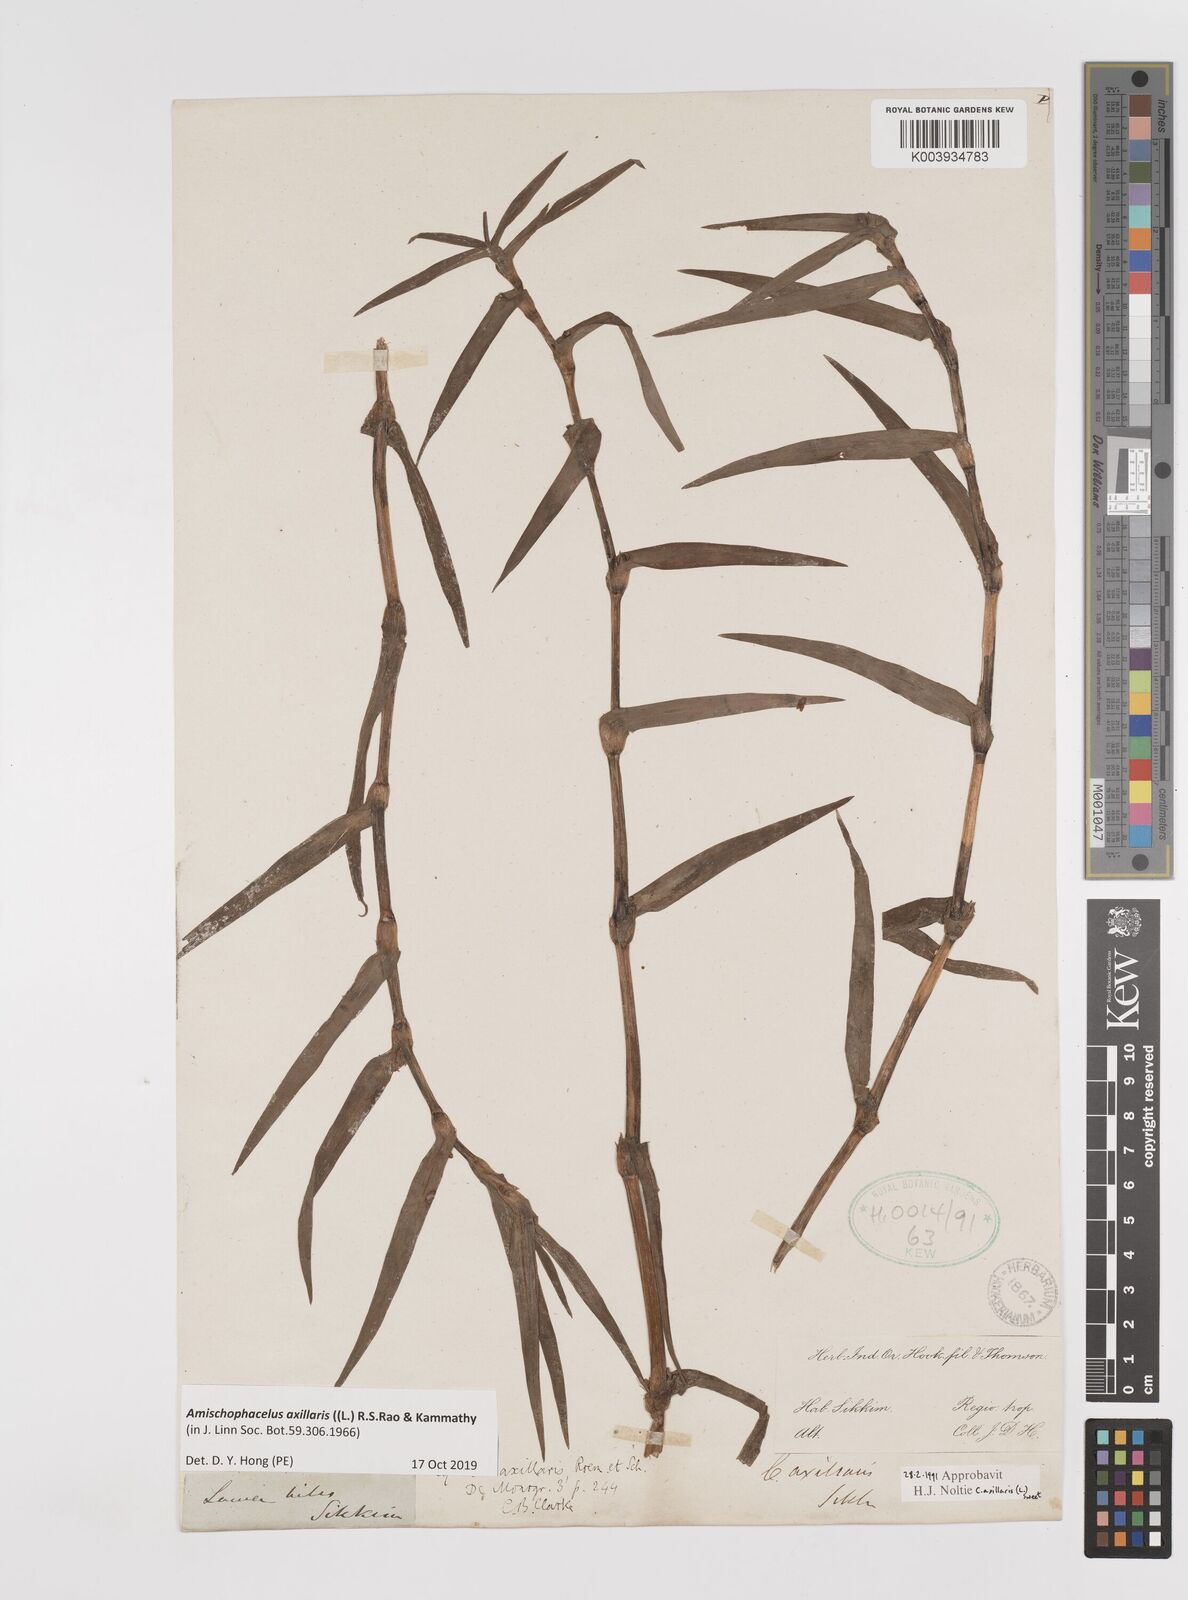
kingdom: Plantae
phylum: Tracheophyta
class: Liliopsida
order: Commelinales
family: Commelinaceae
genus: Cyanotis
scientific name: Cyanotis axillaris
